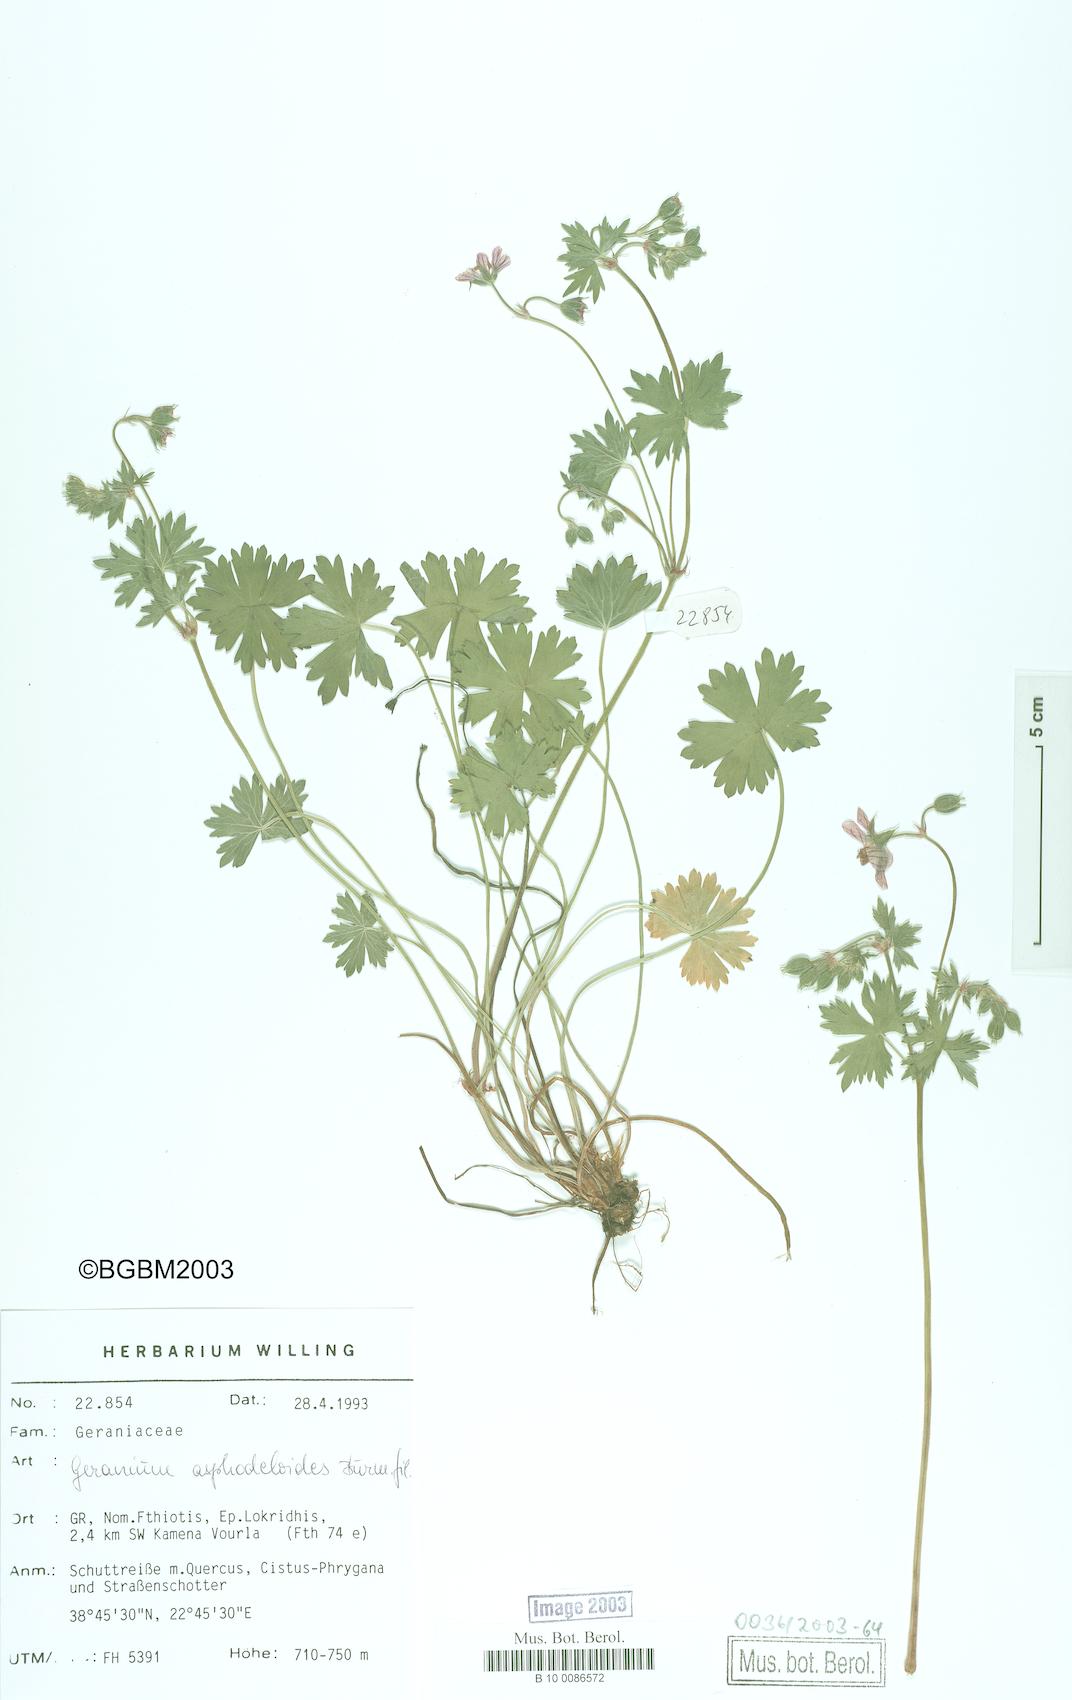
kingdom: Plantae
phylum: Tracheophyta
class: Magnoliopsida
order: Geraniales
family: Geraniaceae
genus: Geranium
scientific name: Geranium asphodeloides
